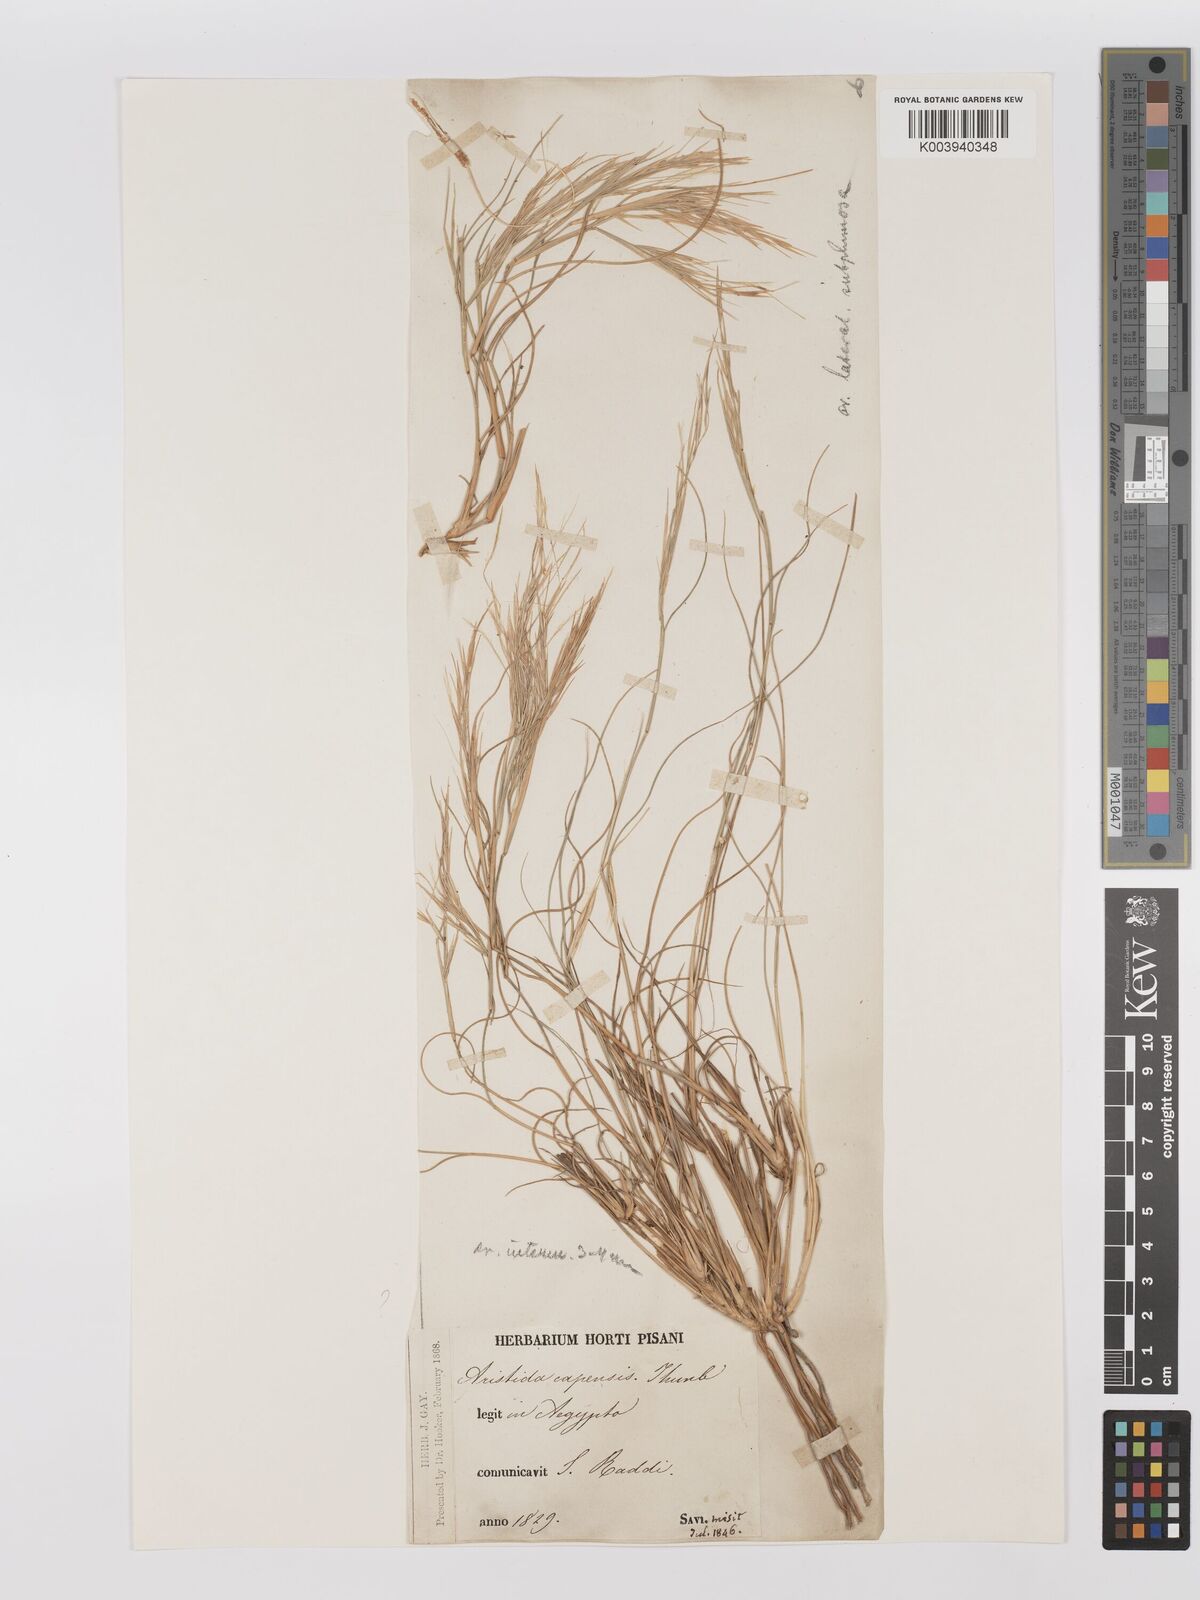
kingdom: Plantae
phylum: Tracheophyta
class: Liliopsida
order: Poales
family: Poaceae
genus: Stipagrostis
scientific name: Stipagrostis lanata
